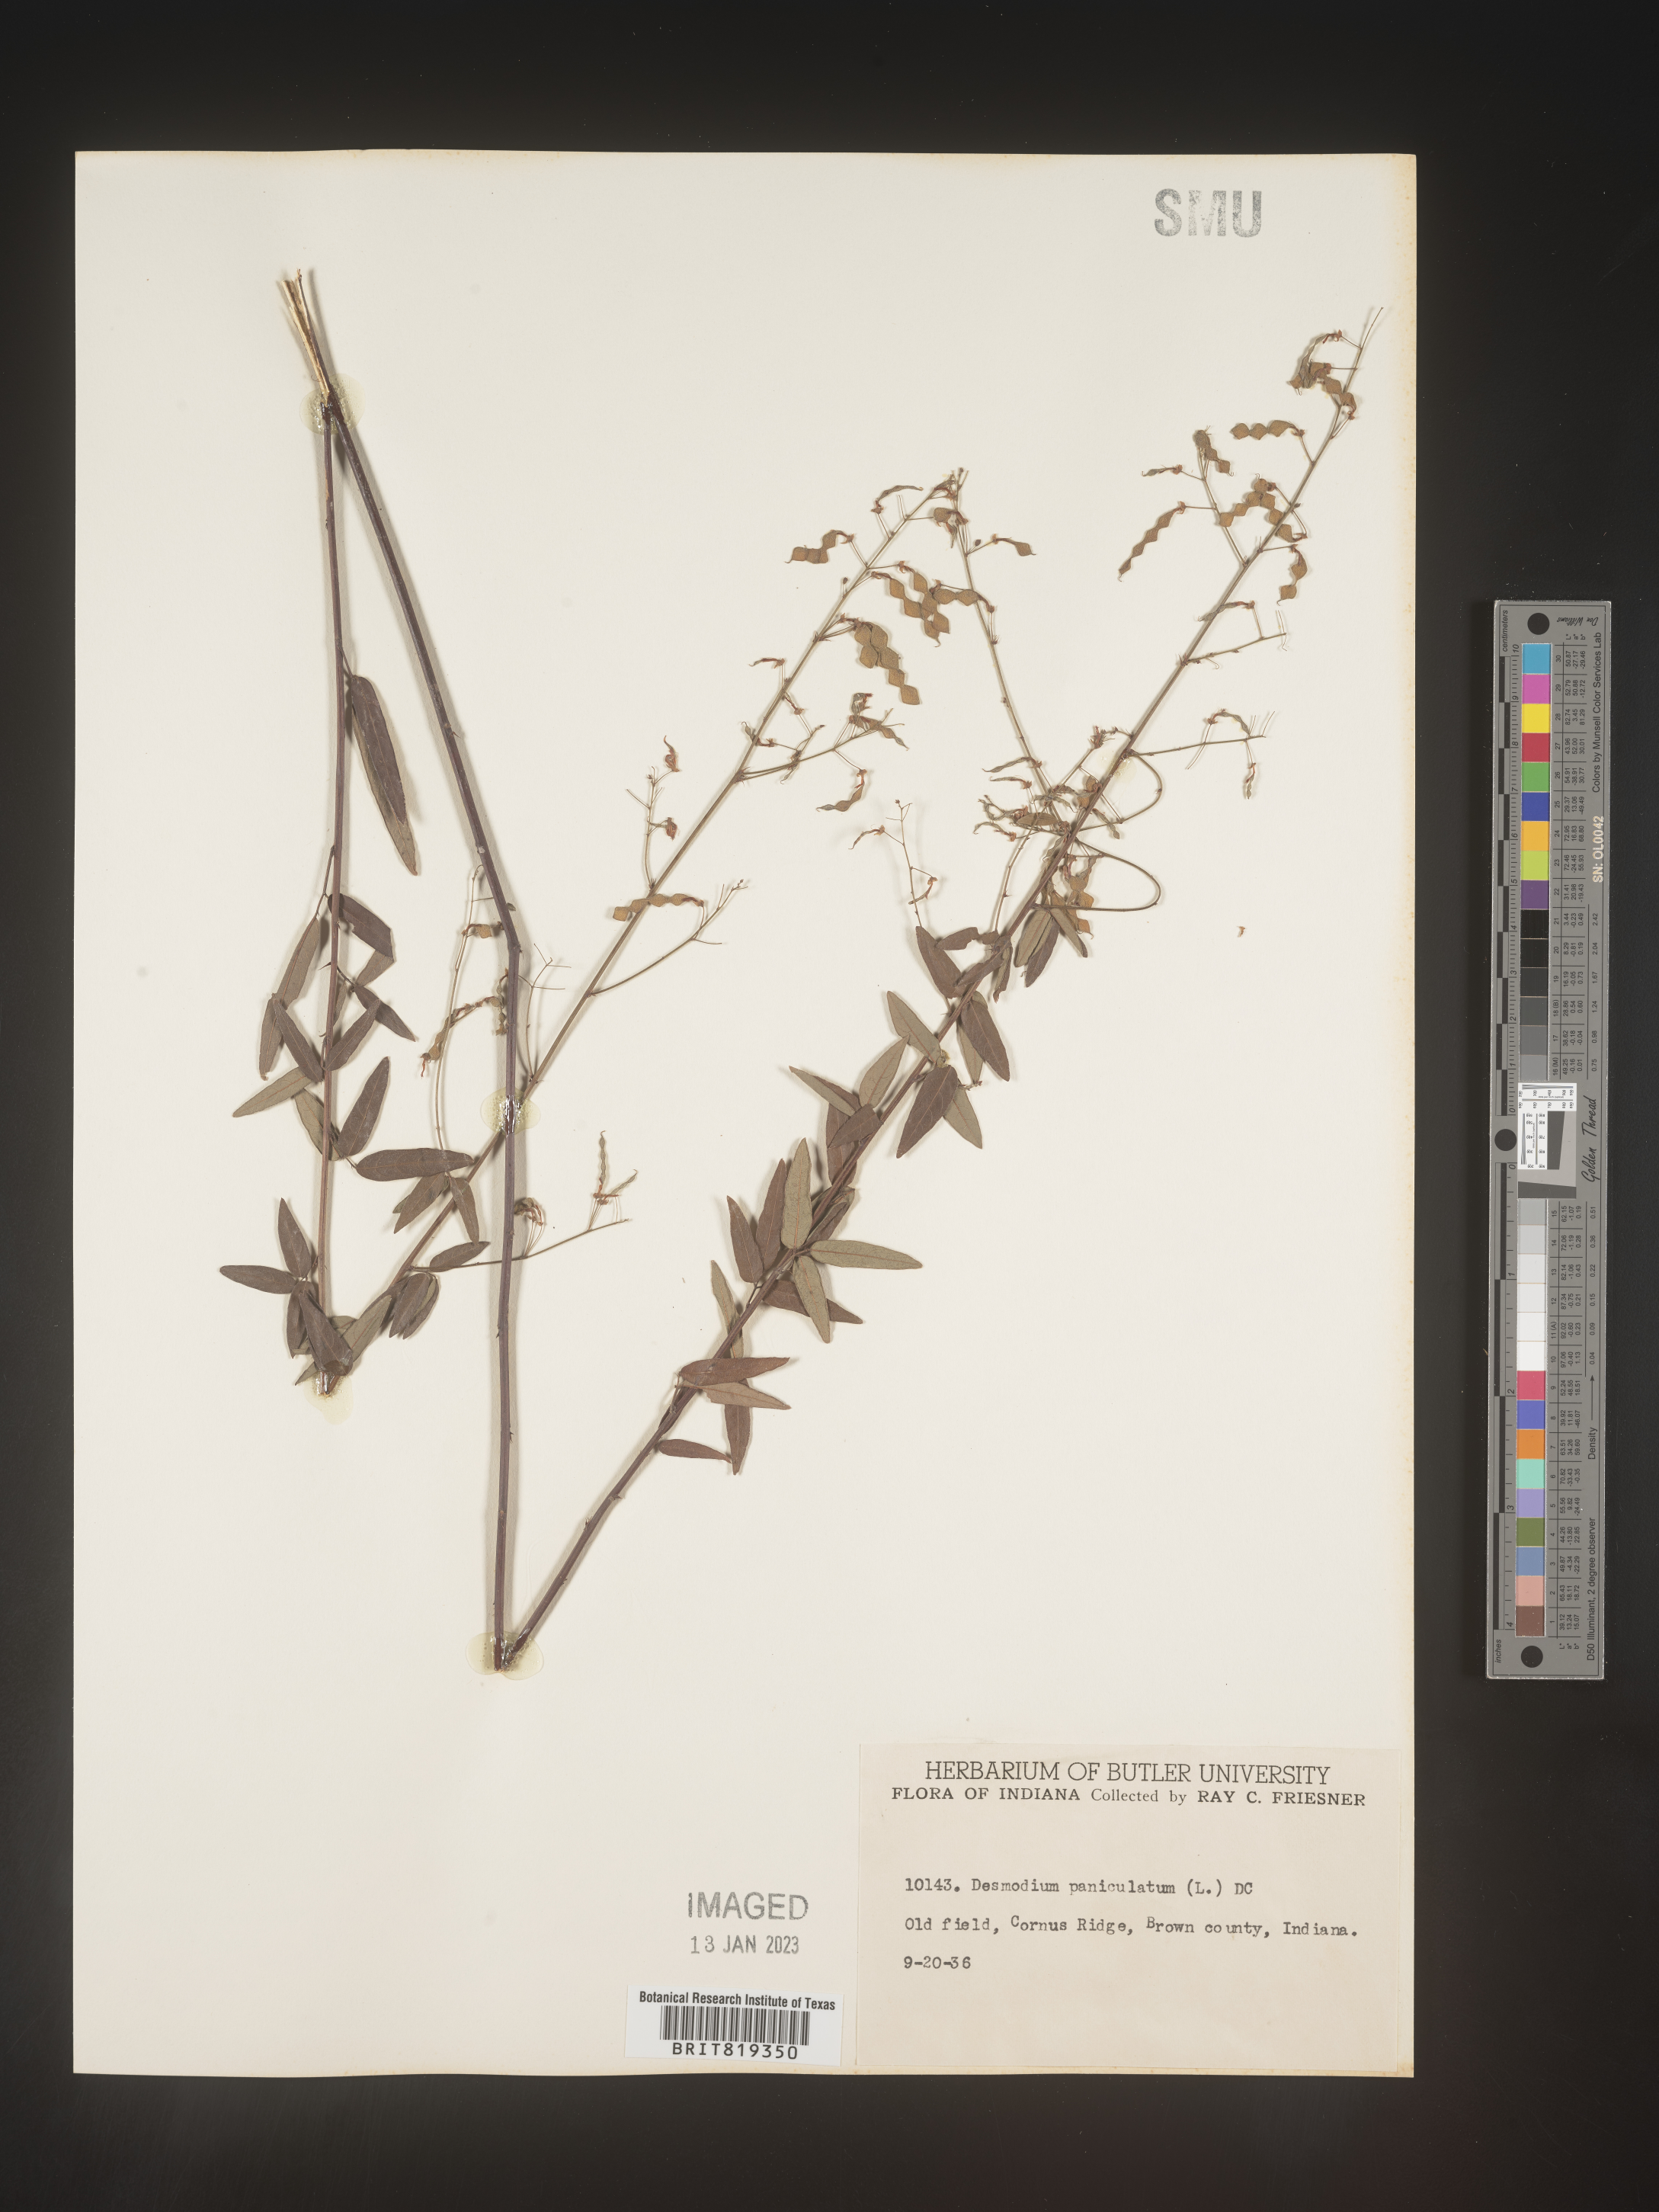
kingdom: Plantae
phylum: Tracheophyta
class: Magnoliopsida
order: Fabales
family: Fabaceae
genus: Desmodium
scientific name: Desmodium paniculatum
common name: Panicled tick-clover
